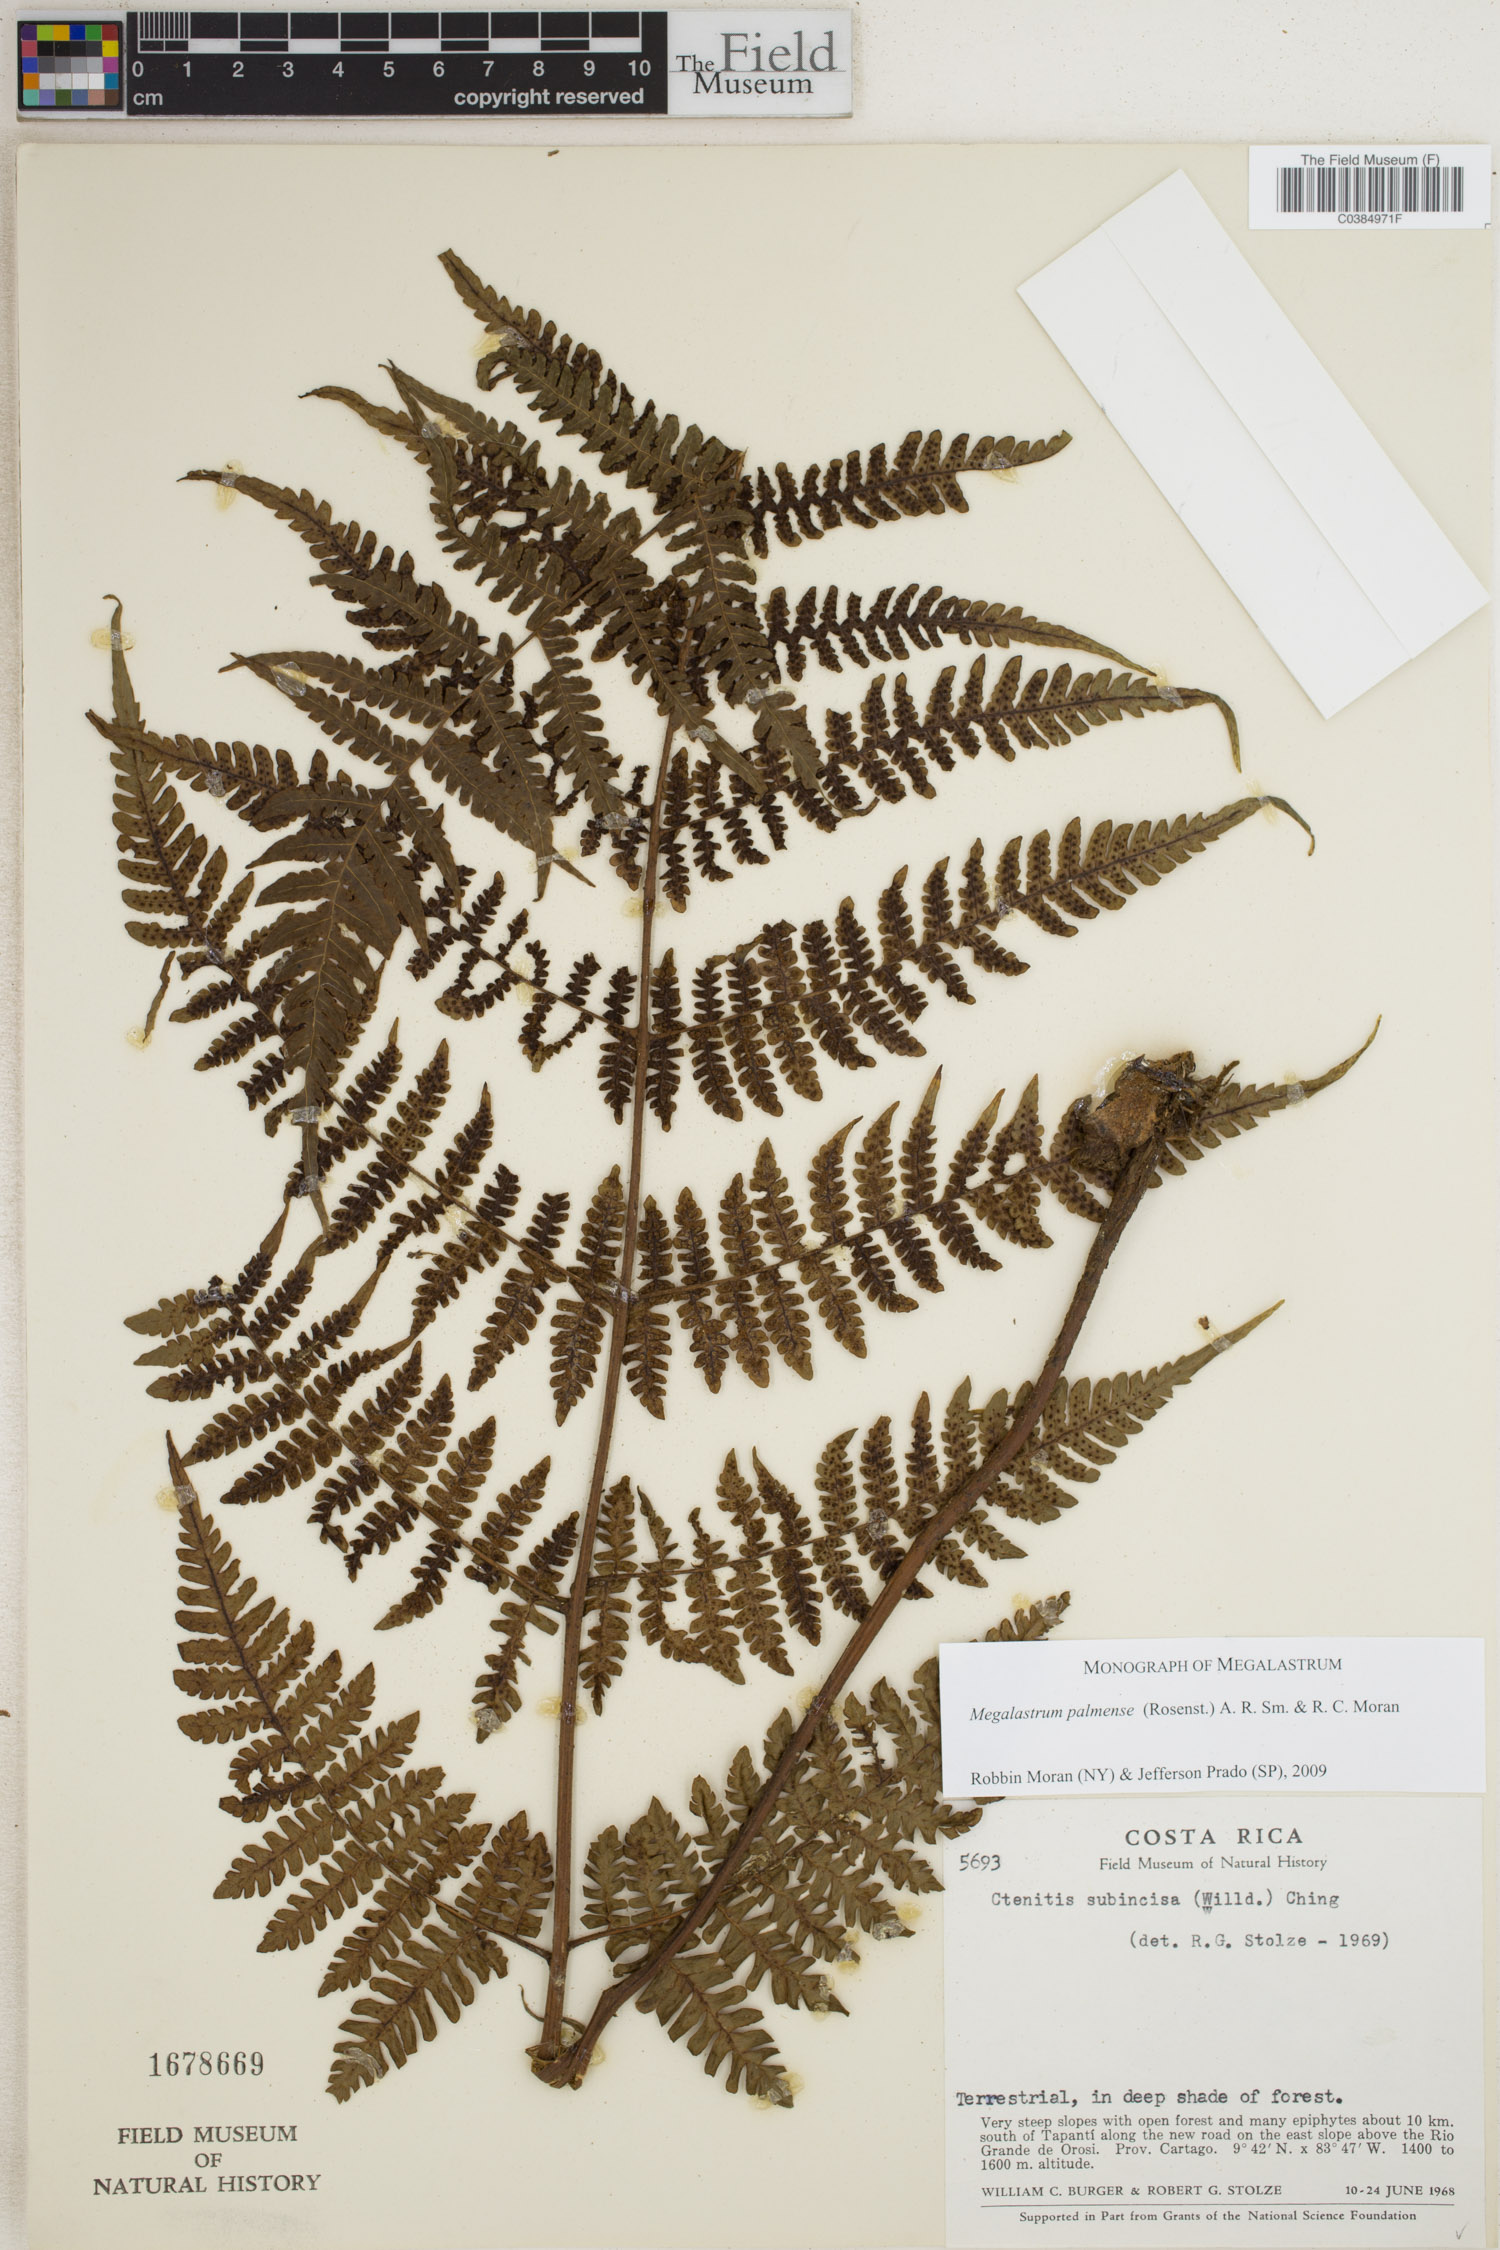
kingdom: Plantae
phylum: Tracheophyta
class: Polypodiopsida
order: Polypodiales
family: Dryopteridaceae
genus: Megalastrum
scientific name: Megalastrum palmense
